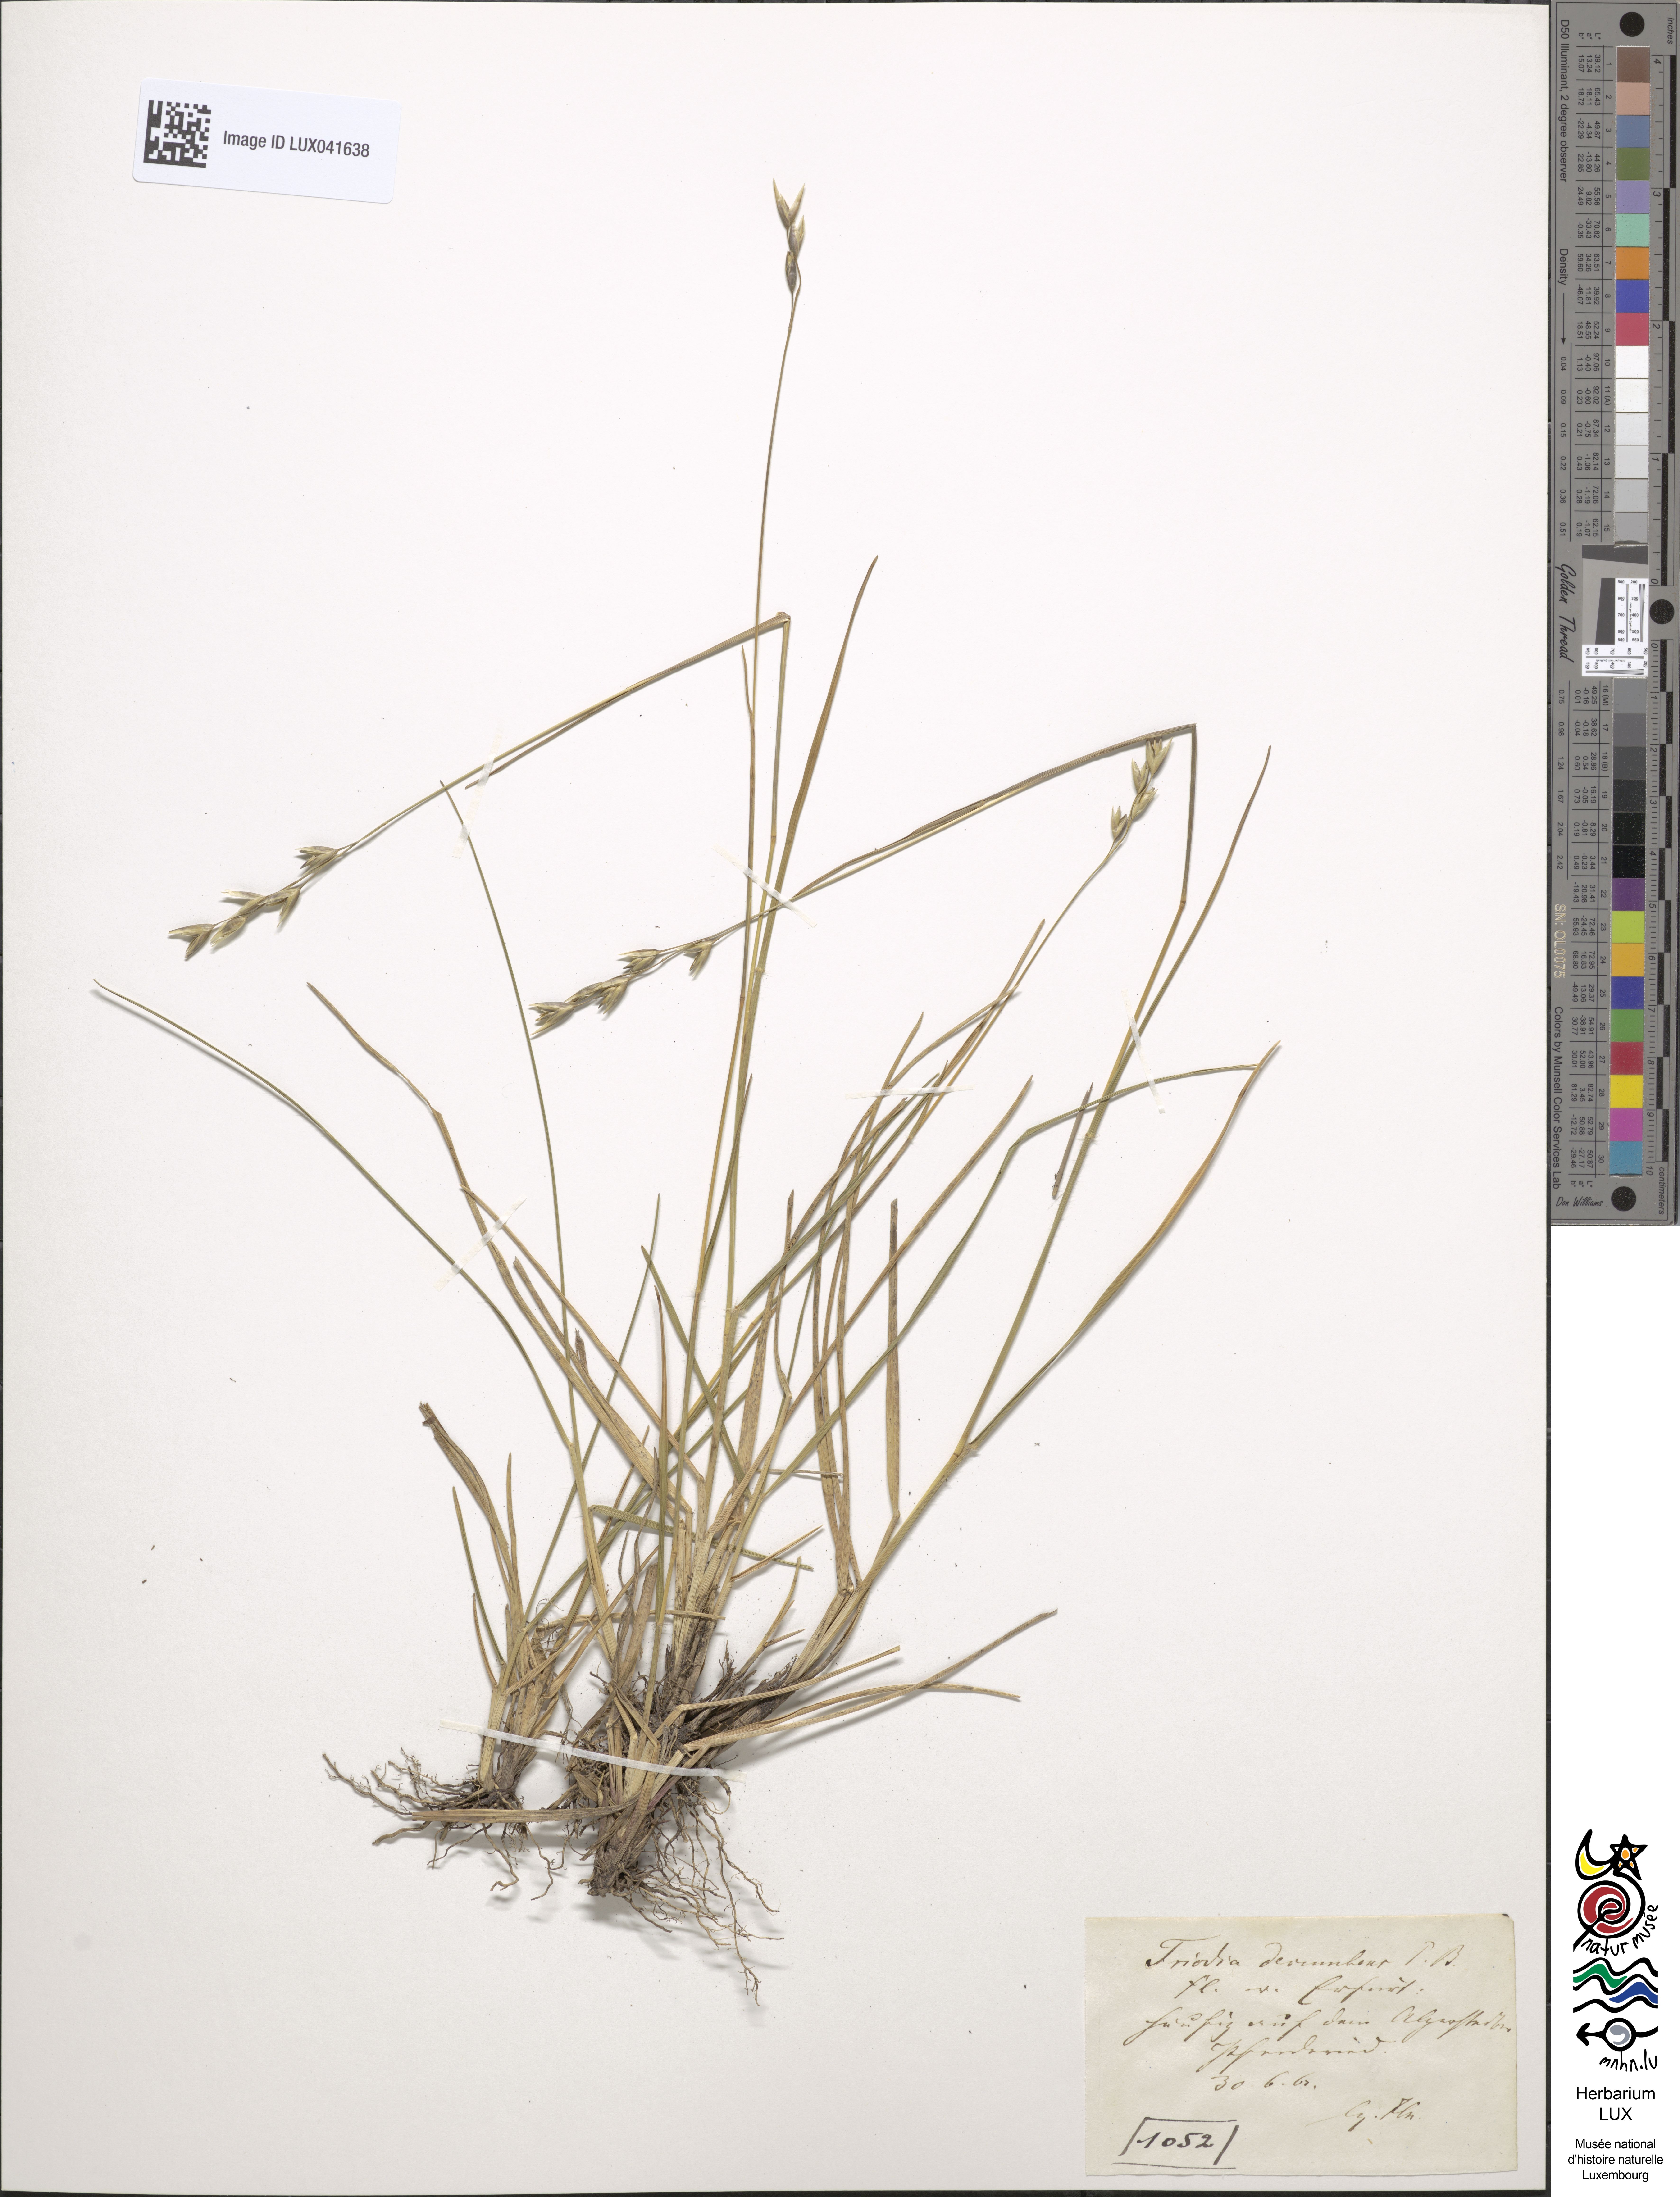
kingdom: Plantae
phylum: Tracheophyta
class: Liliopsida
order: Poales
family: Poaceae
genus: Danthonia
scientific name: Danthonia decumbens
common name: Common heathgrass
